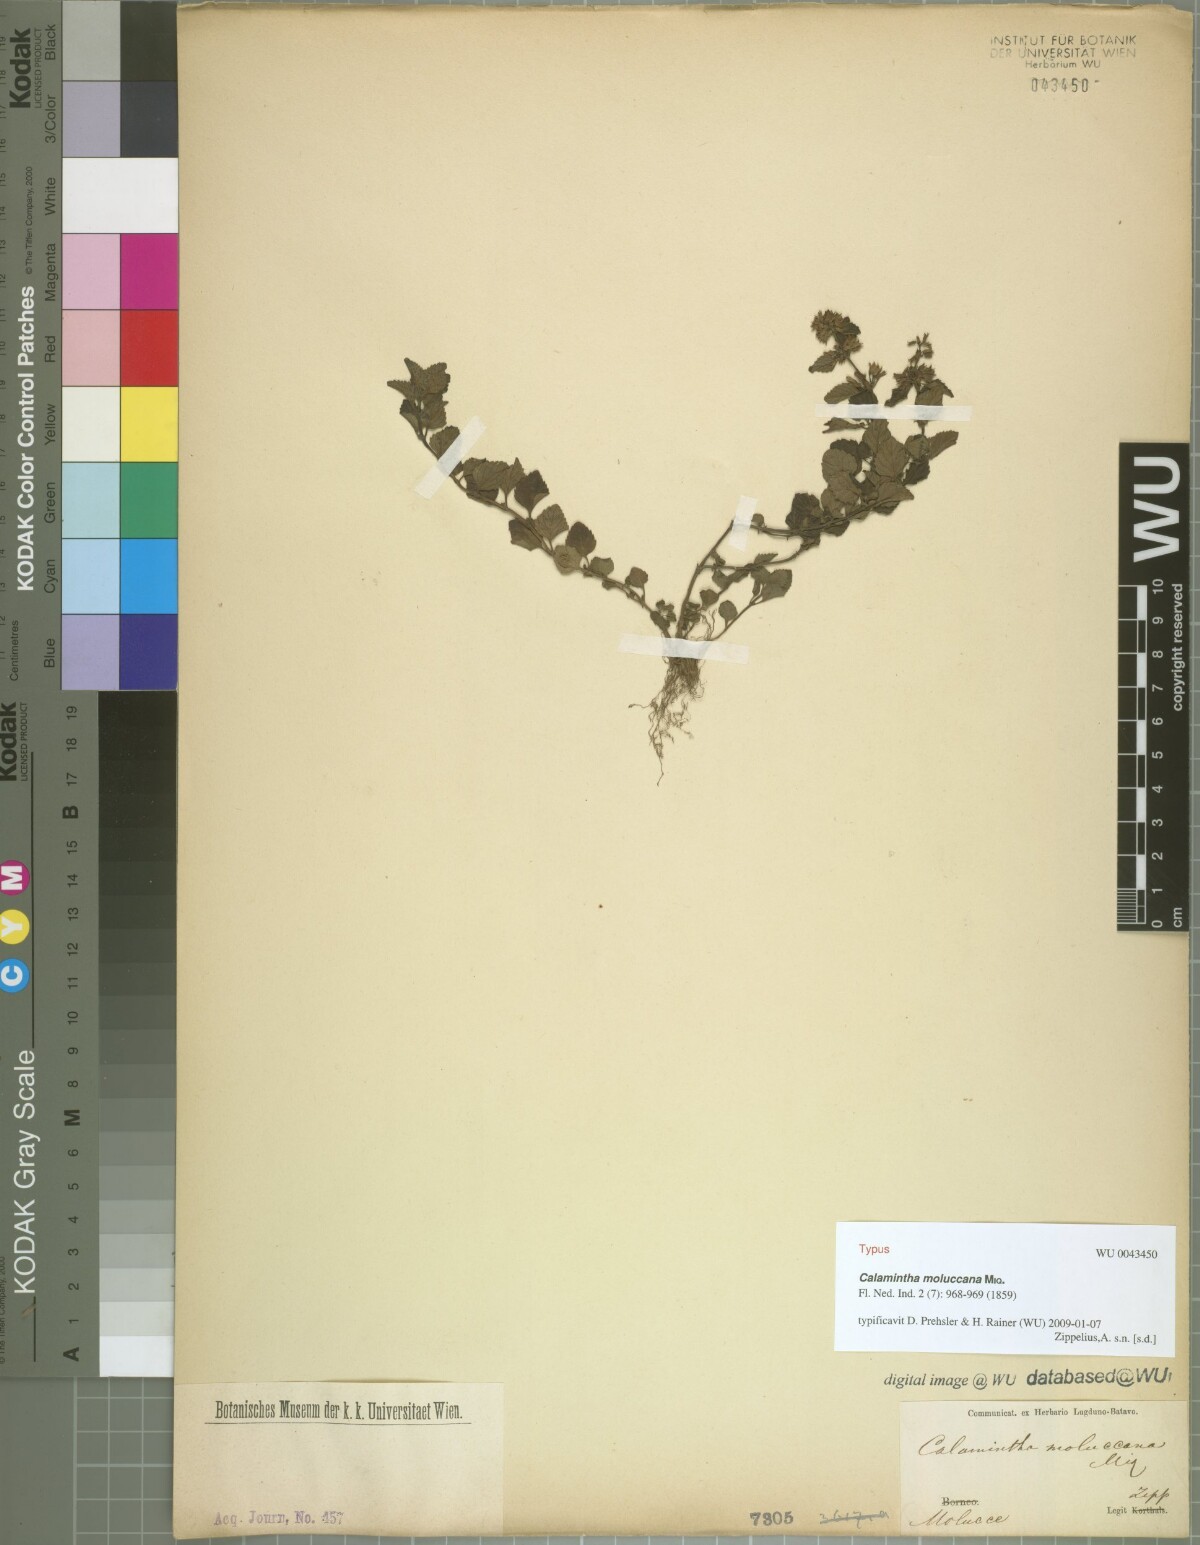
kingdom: Plantae
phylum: Tracheophyta
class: Magnoliopsida
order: Lamiales
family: Lamiaceae
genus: Clinopodium
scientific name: Clinopodium gracile
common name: Slender wild basil
